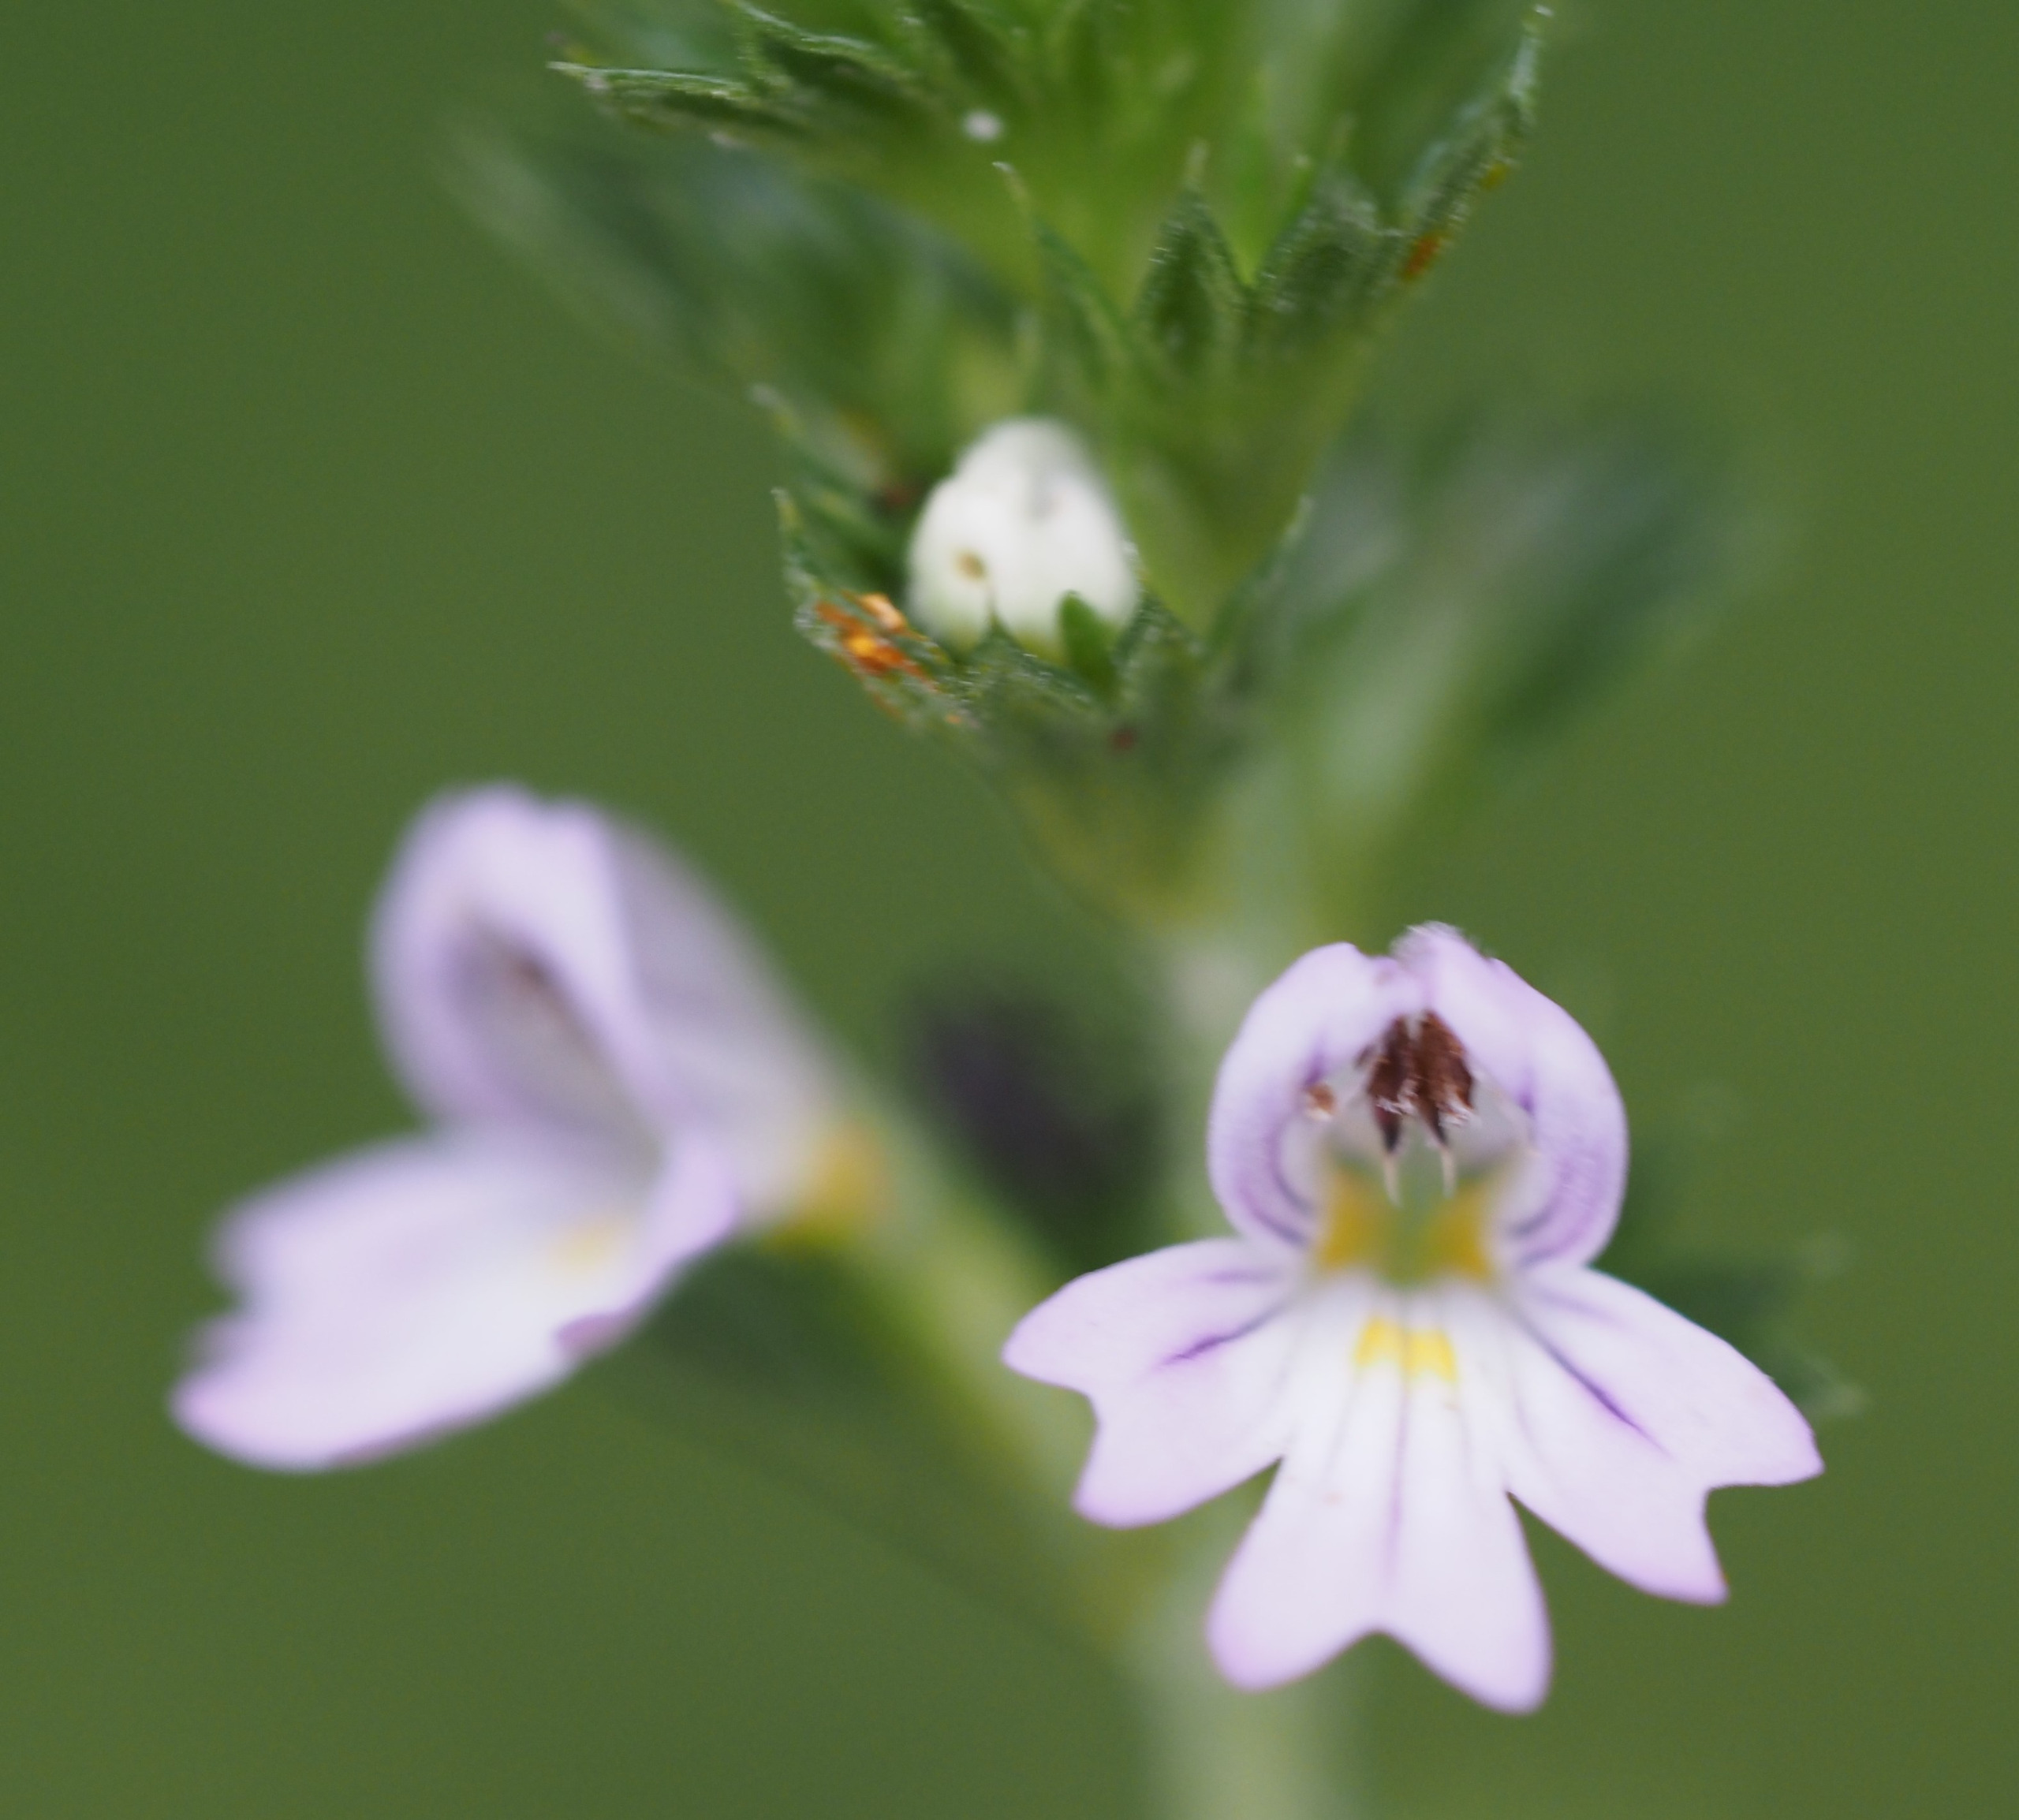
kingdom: Plantae
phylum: Tracheophyta
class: Magnoliopsida
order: Lamiales
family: Orobanchaceae
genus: Euphrasia
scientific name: Euphrasia stricta
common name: Spids øjentrøst
